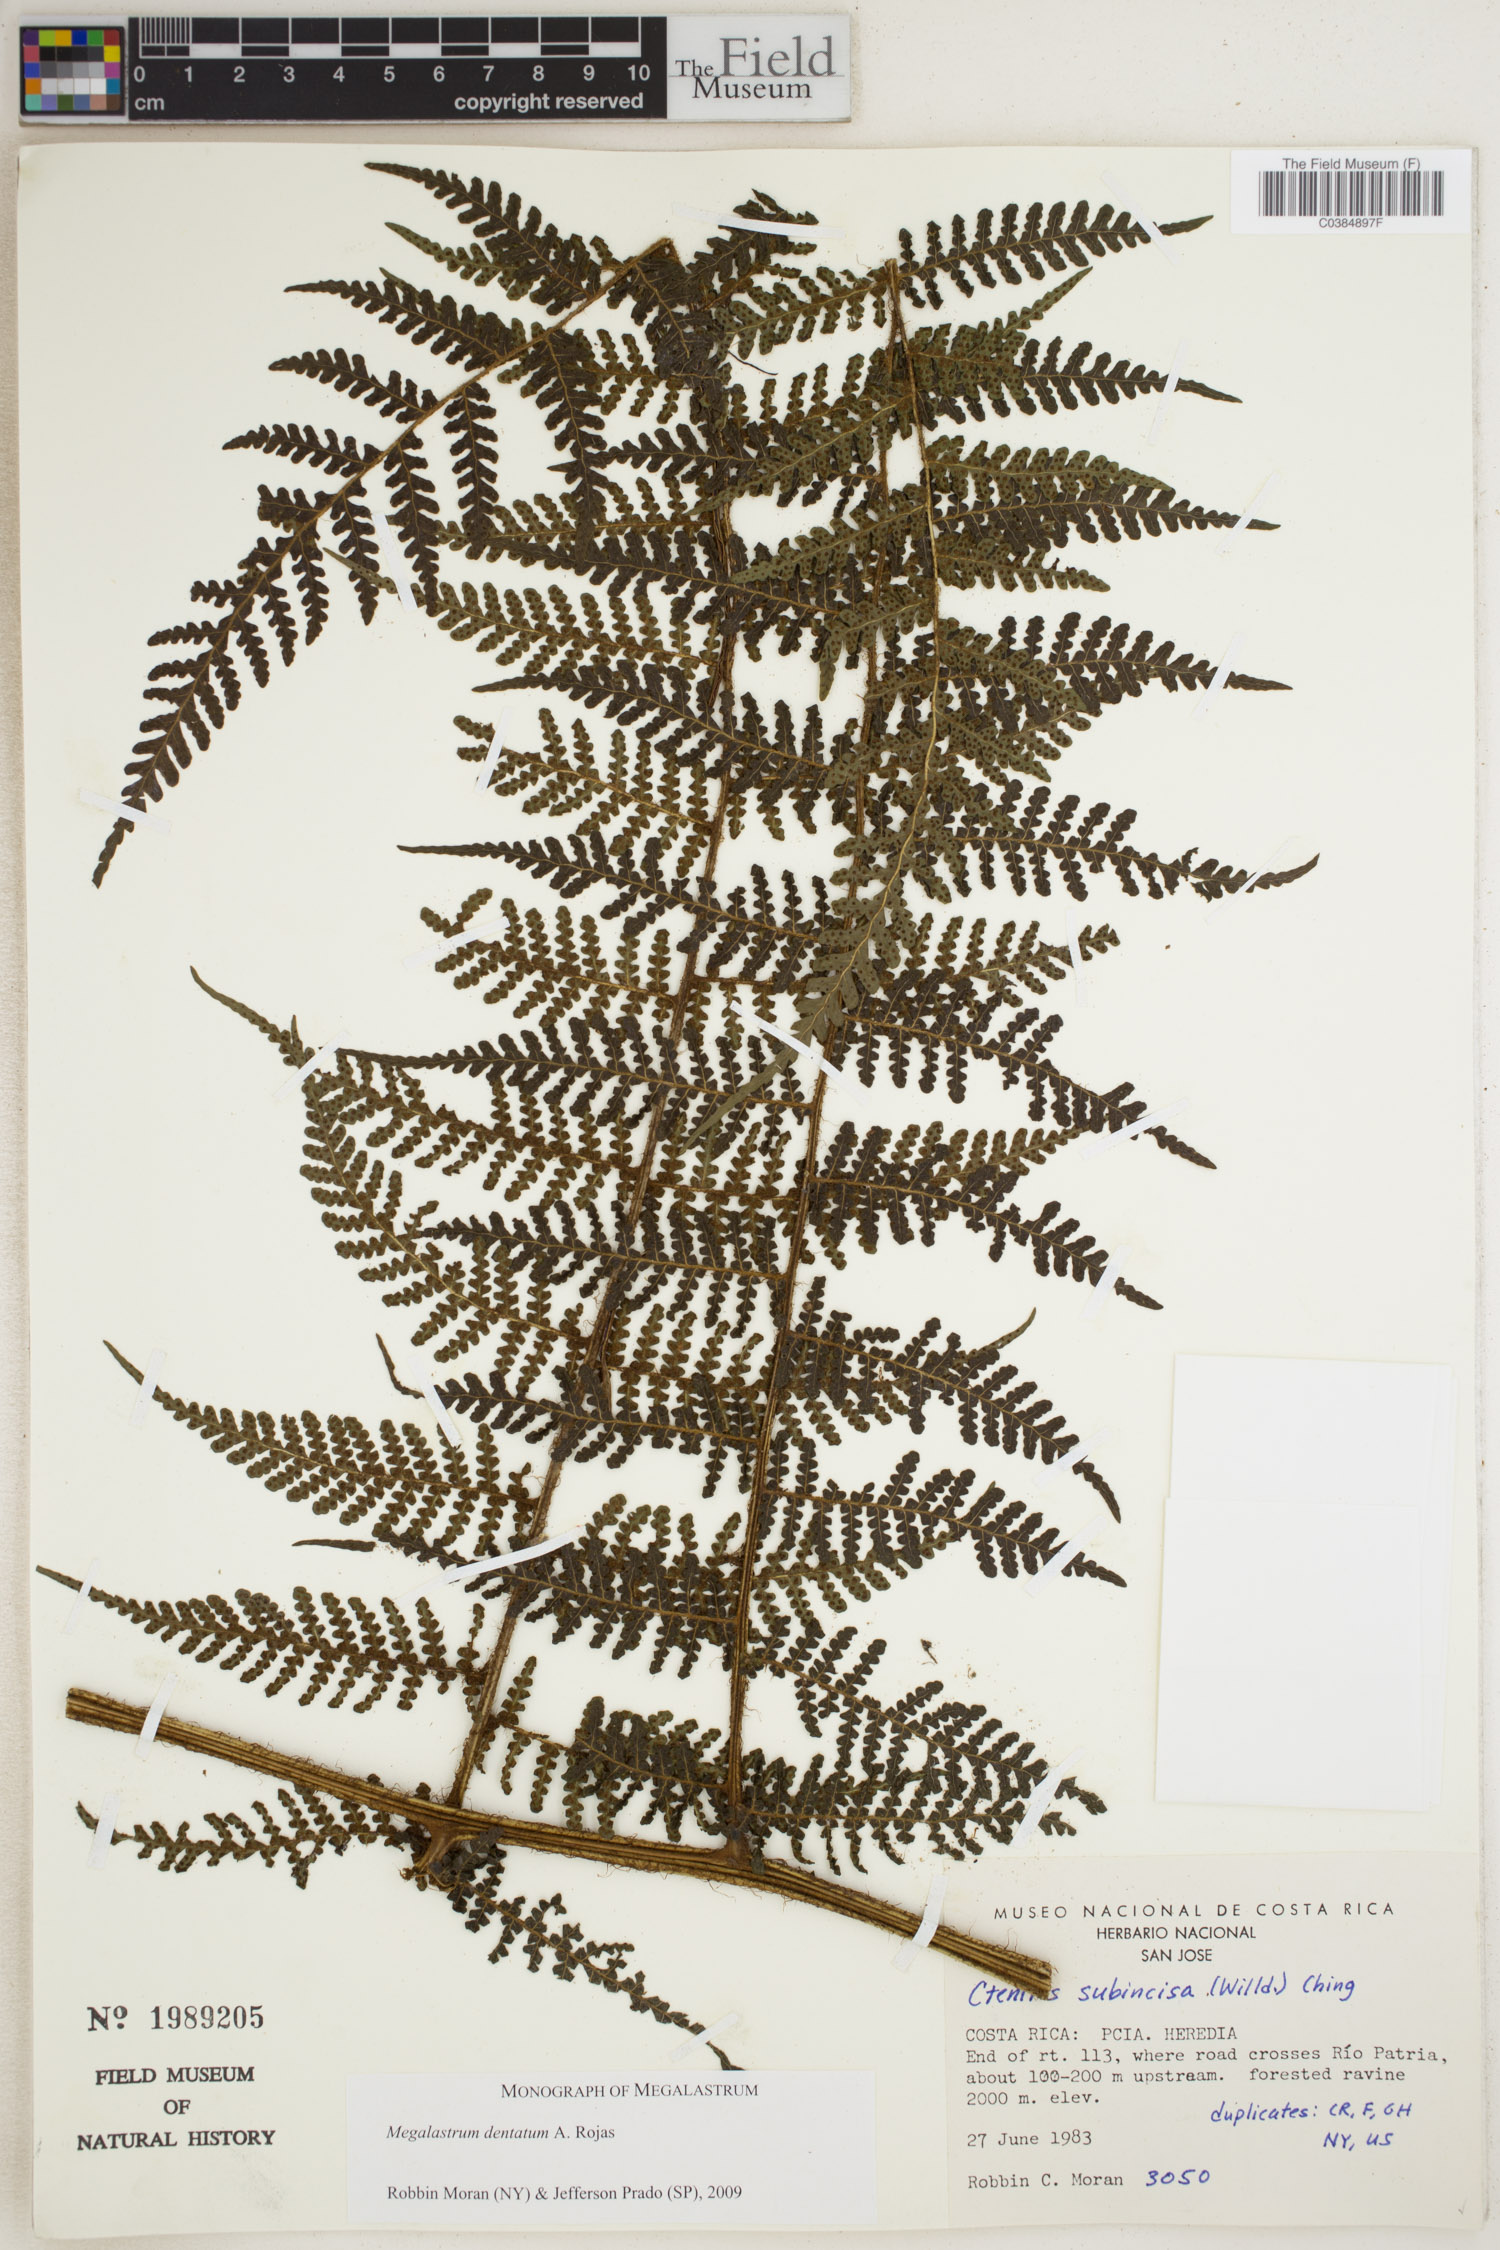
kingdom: Plantae
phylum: Tracheophyta
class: Polypodiopsida
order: Polypodiales
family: Dryopteridaceae
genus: Megalastrum
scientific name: Megalastrum dentatum
